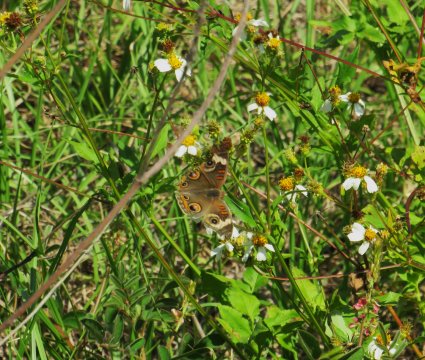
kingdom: Animalia
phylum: Arthropoda
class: Insecta
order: Lepidoptera
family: Nymphalidae
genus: Junonia
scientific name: Junonia coenia
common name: Common Buckeye
